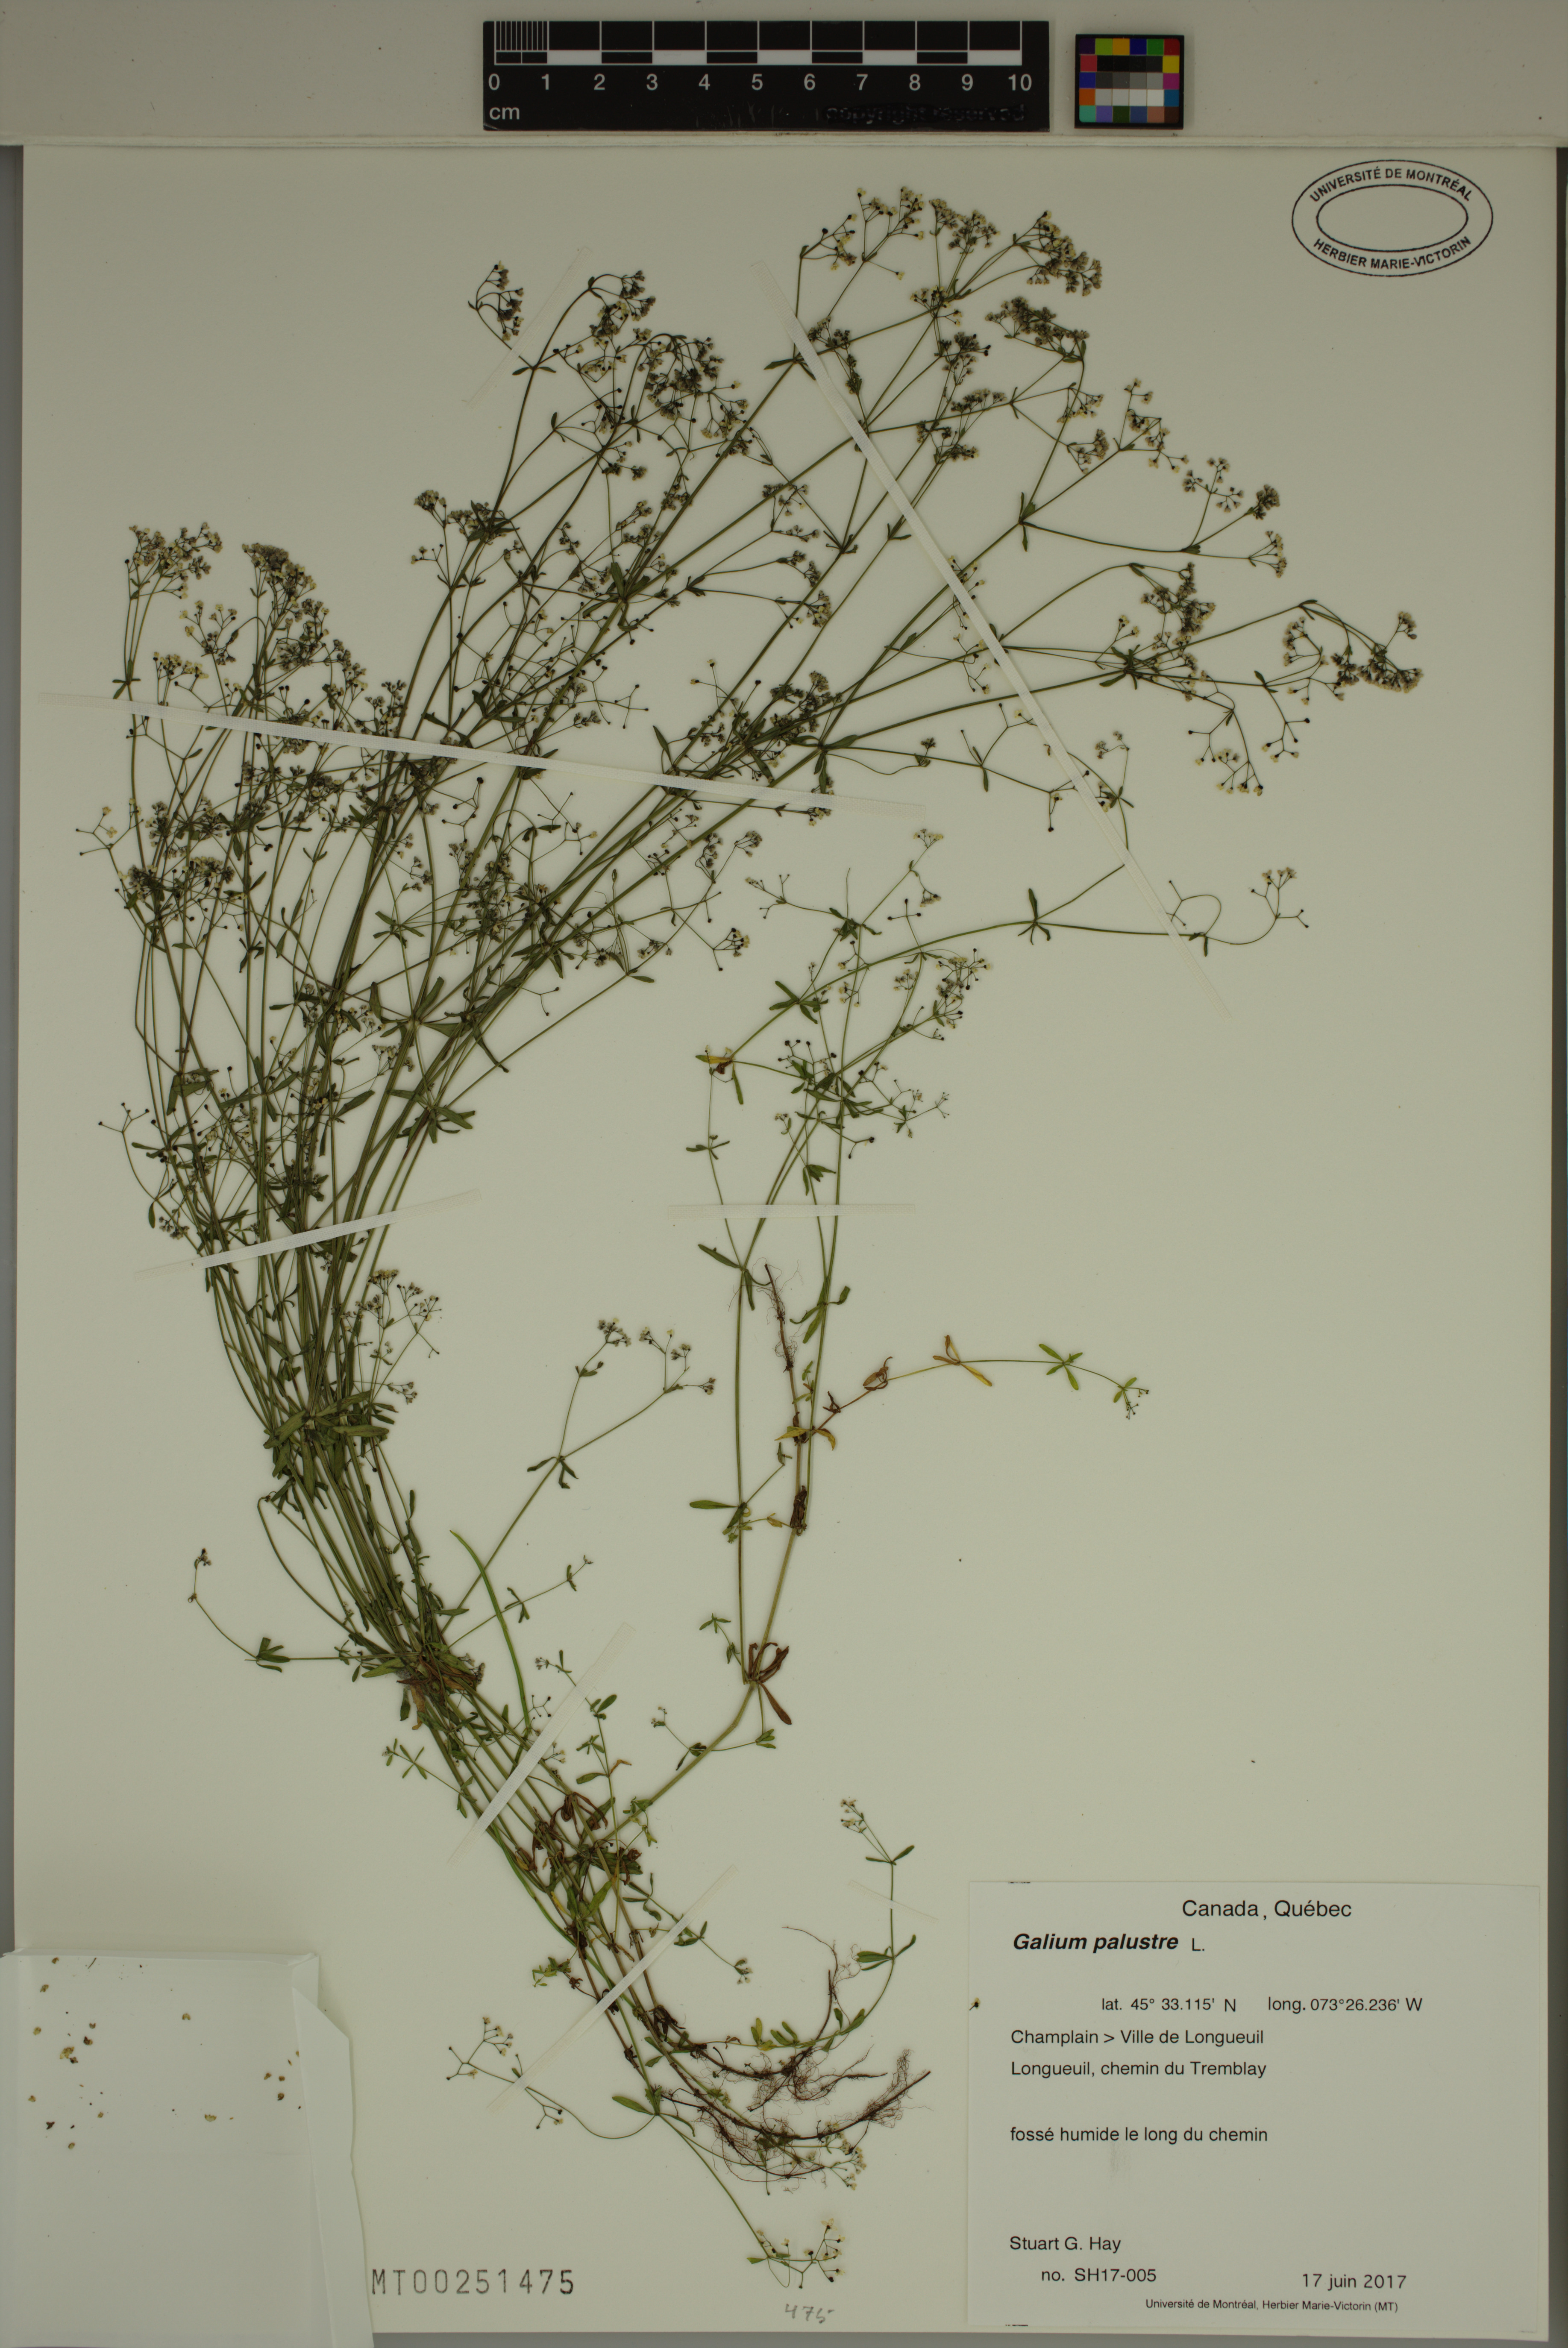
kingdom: Plantae
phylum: Tracheophyta
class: Magnoliopsida
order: Gentianales
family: Rubiaceae
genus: Galium
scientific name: Galium palustre
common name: Common marsh-bedstraw
